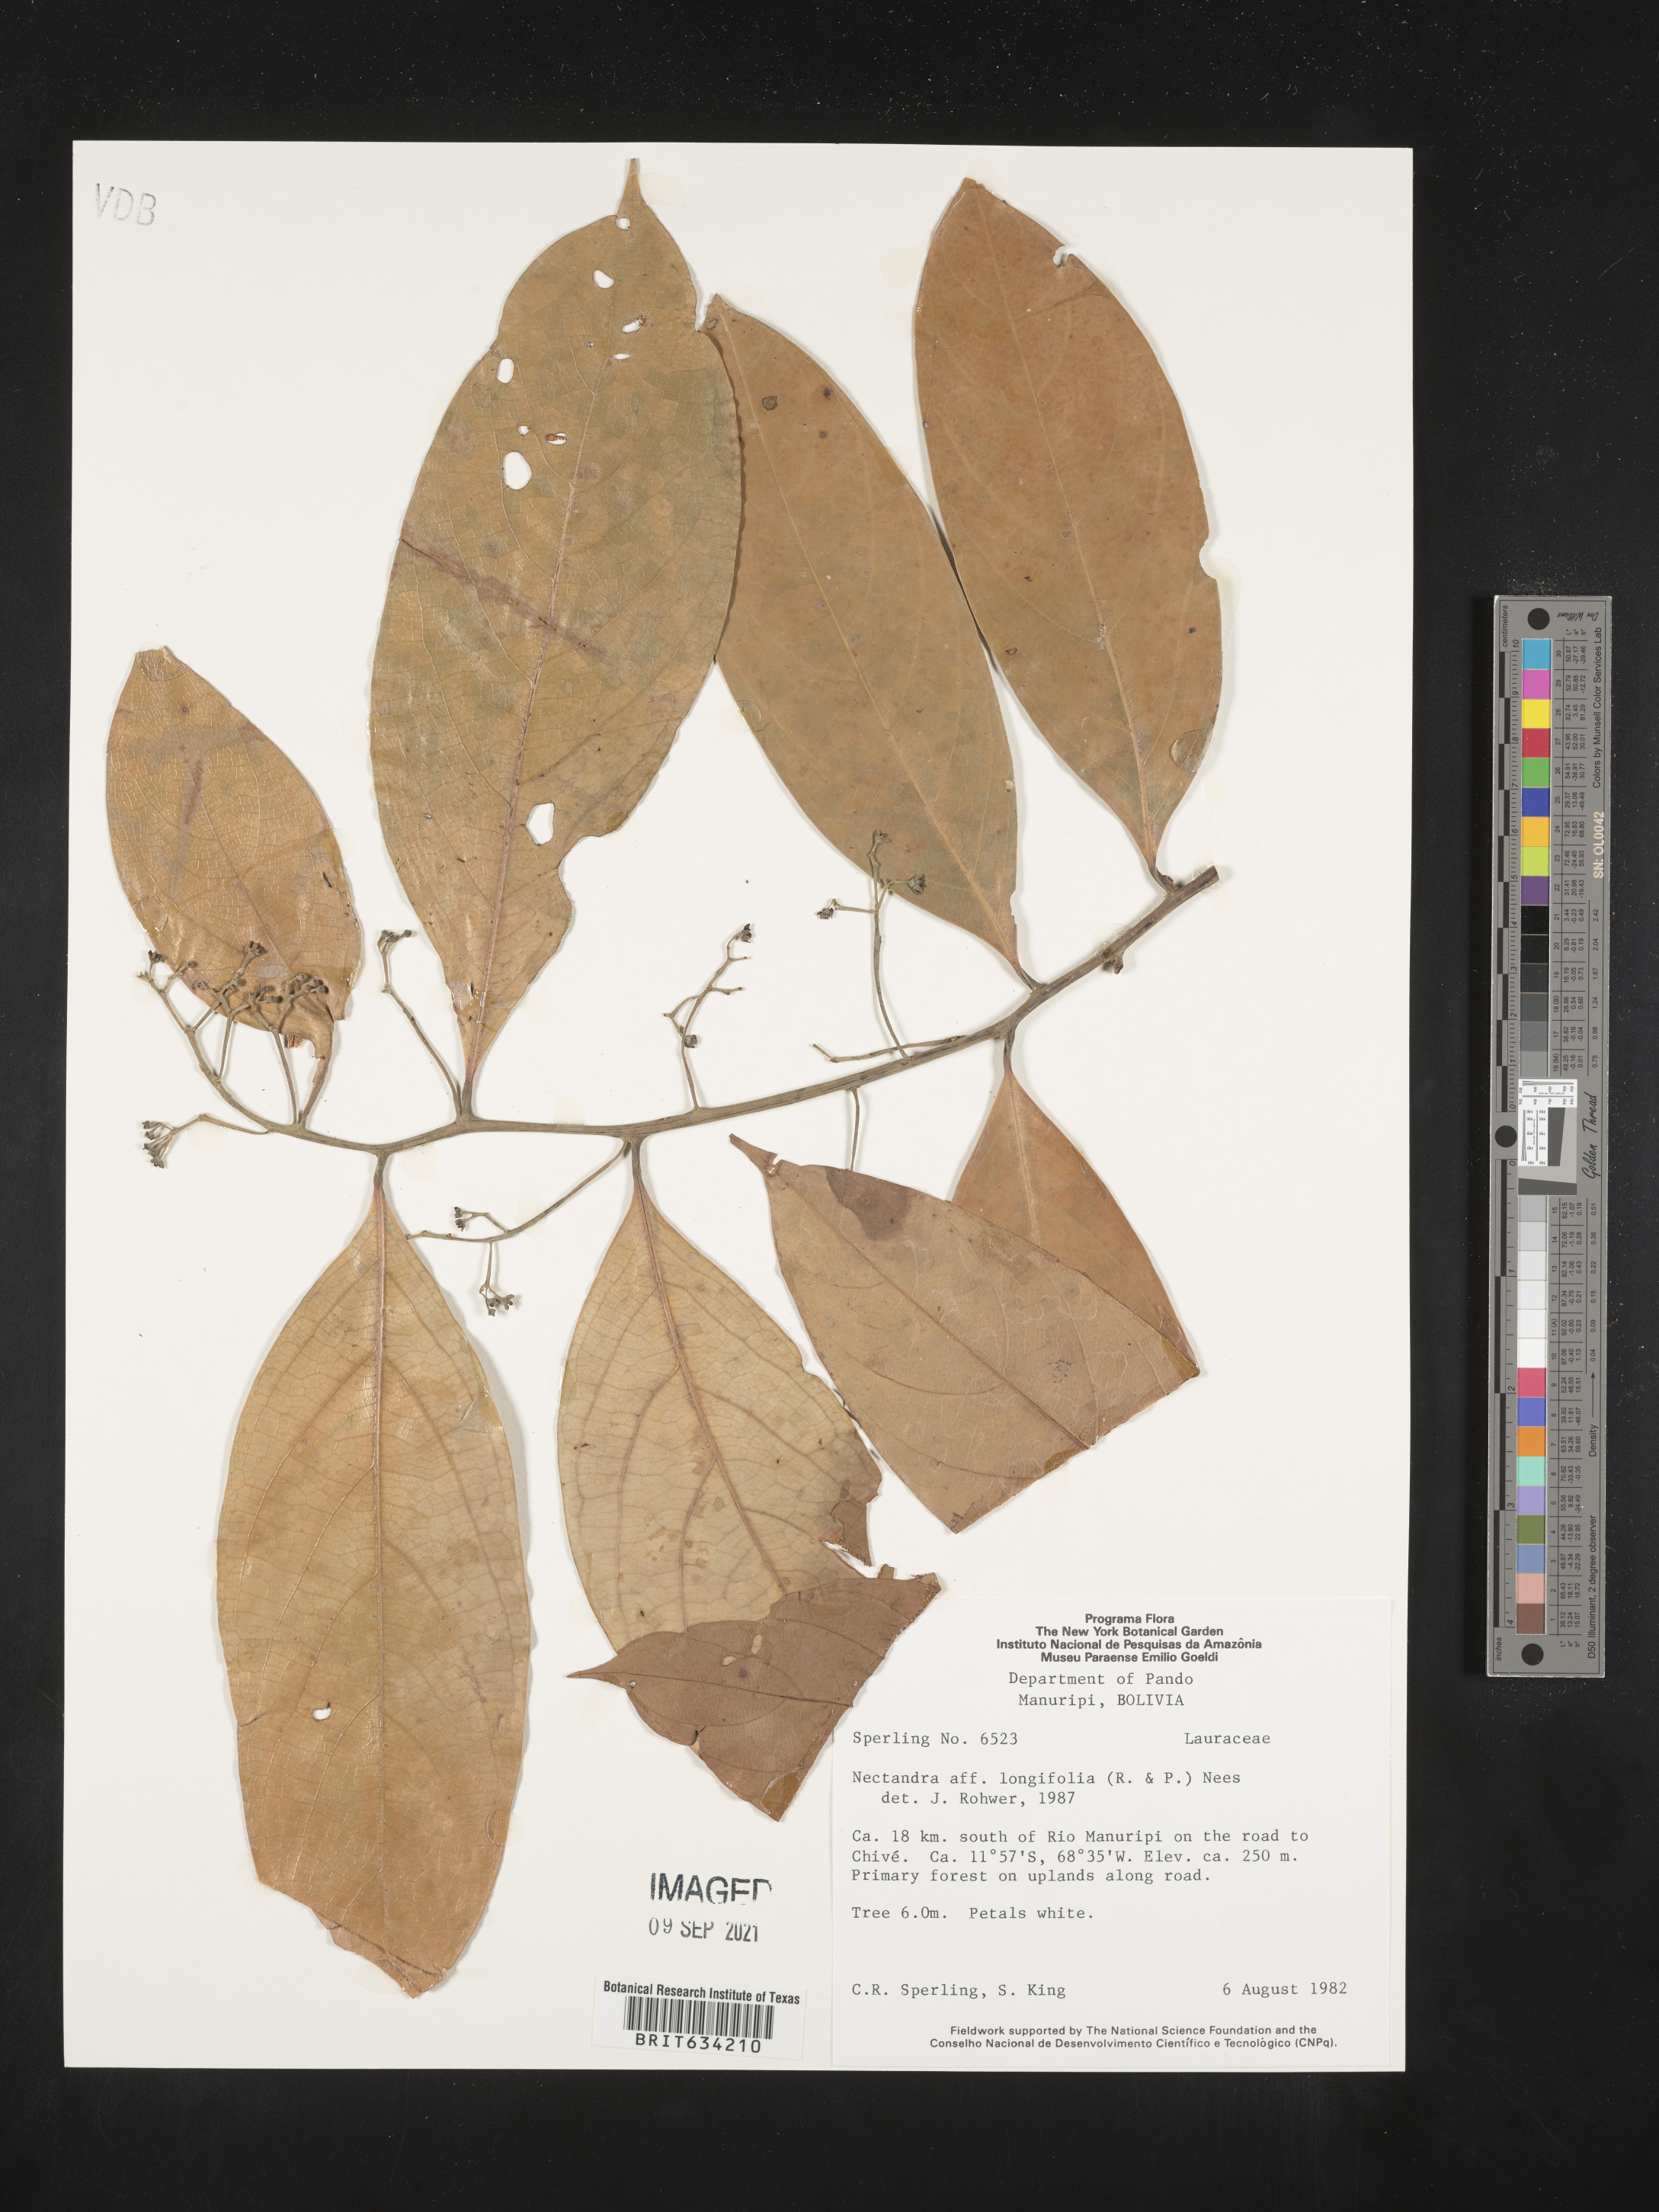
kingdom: Plantae
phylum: Tracheophyta
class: Magnoliopsida
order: Laurales
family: Lauraceae
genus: Nectandra
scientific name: Nectandra
